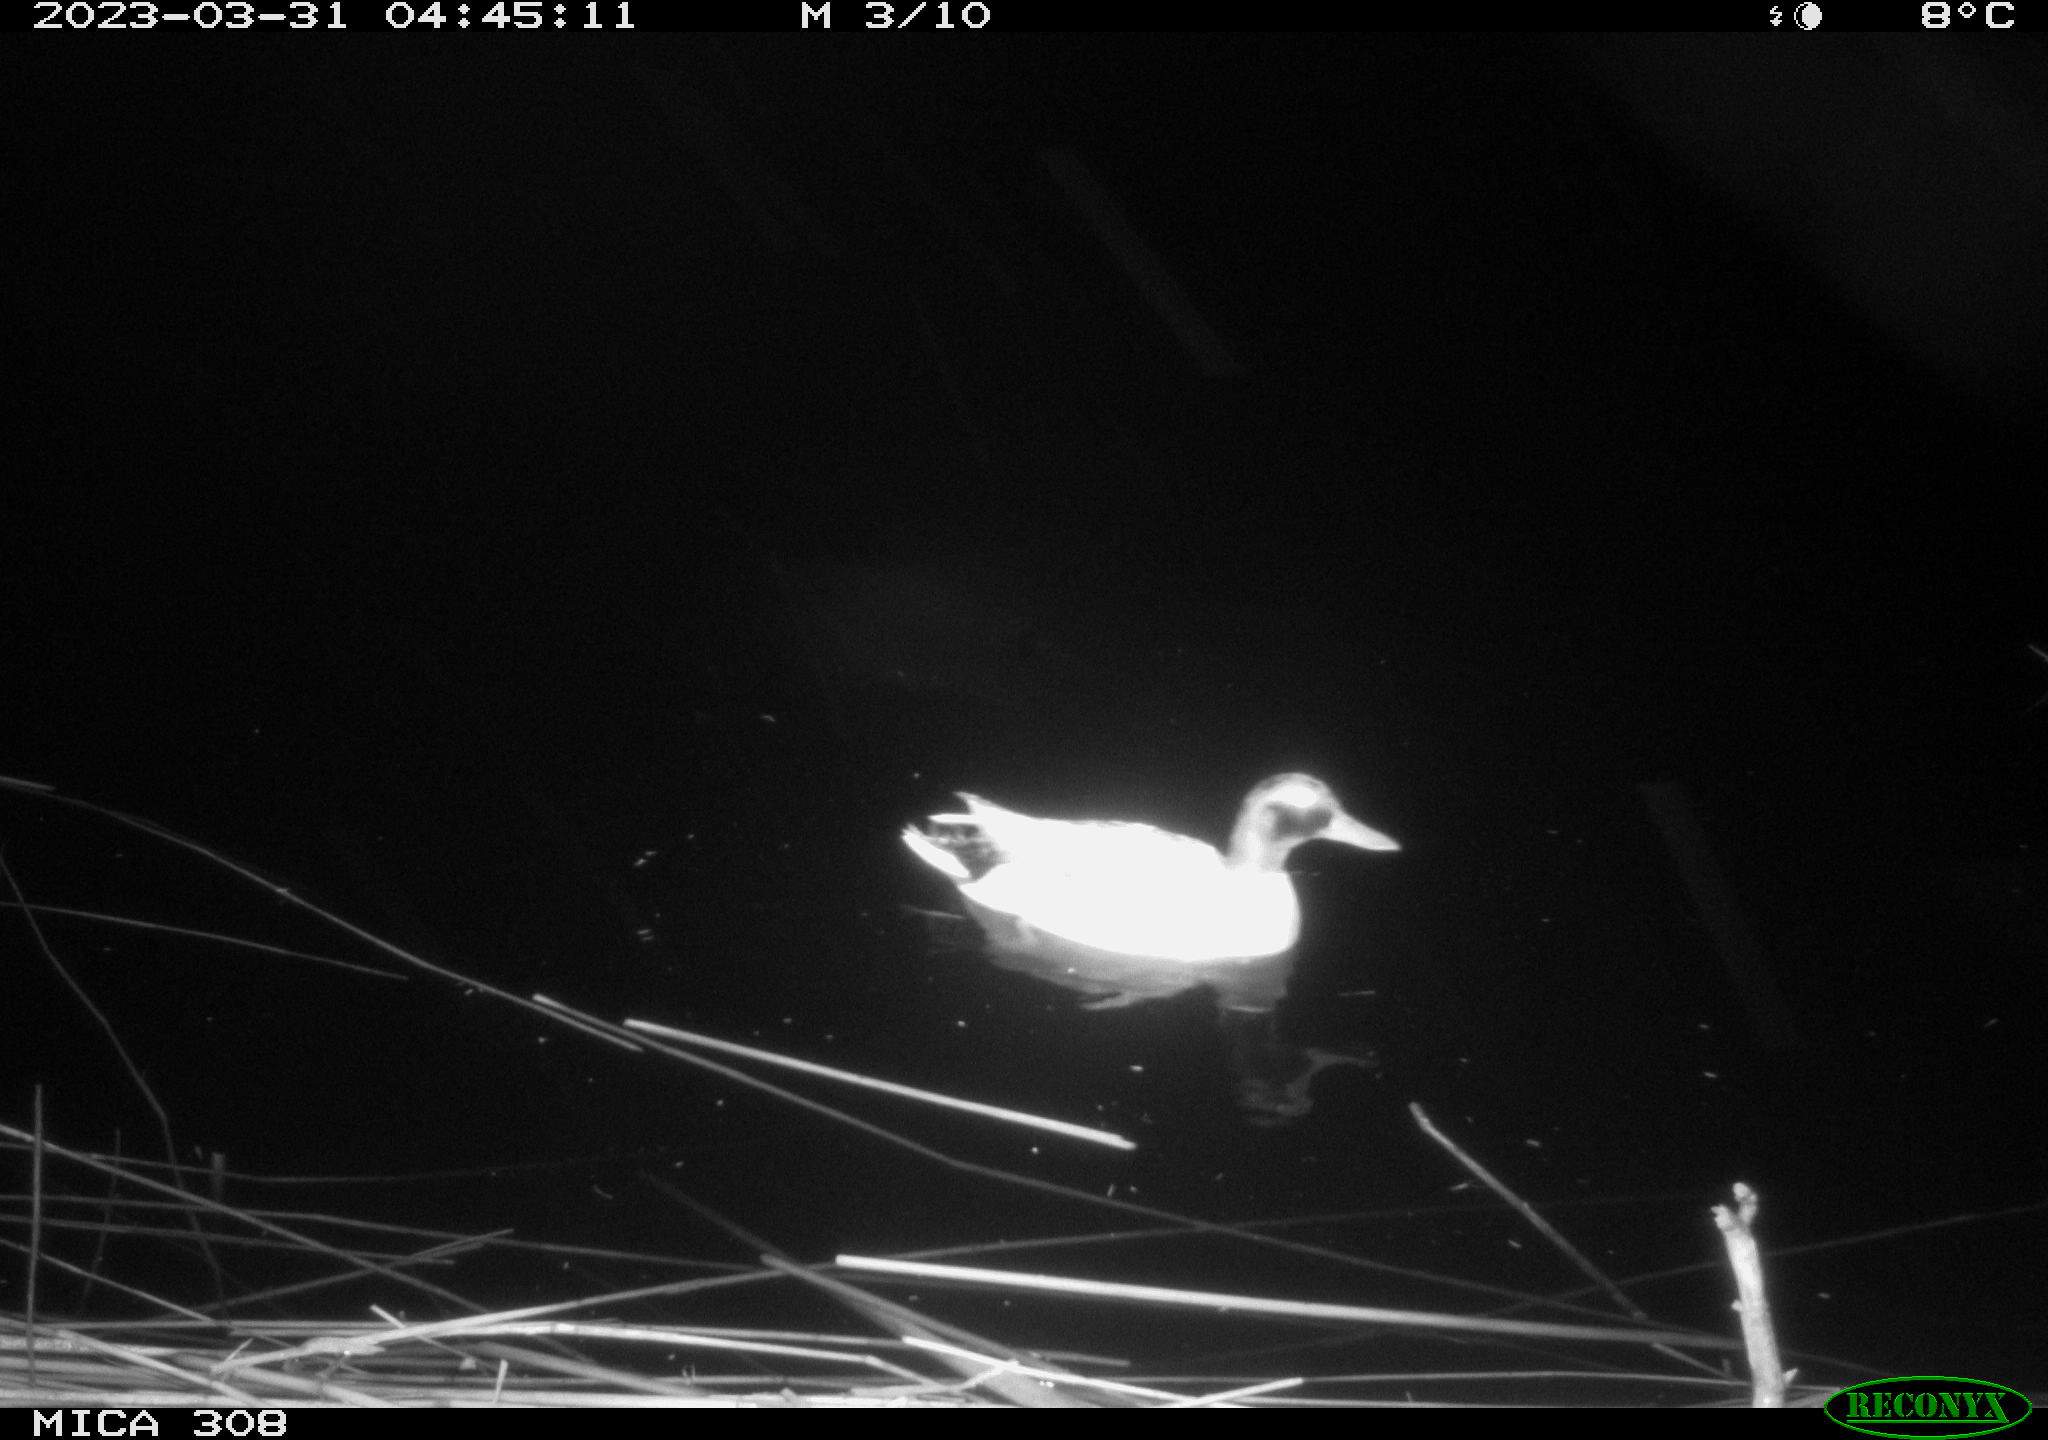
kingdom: Animalia
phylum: Chordata
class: Aves
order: Anseriformes
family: Anatidae
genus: Anas
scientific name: Anas
